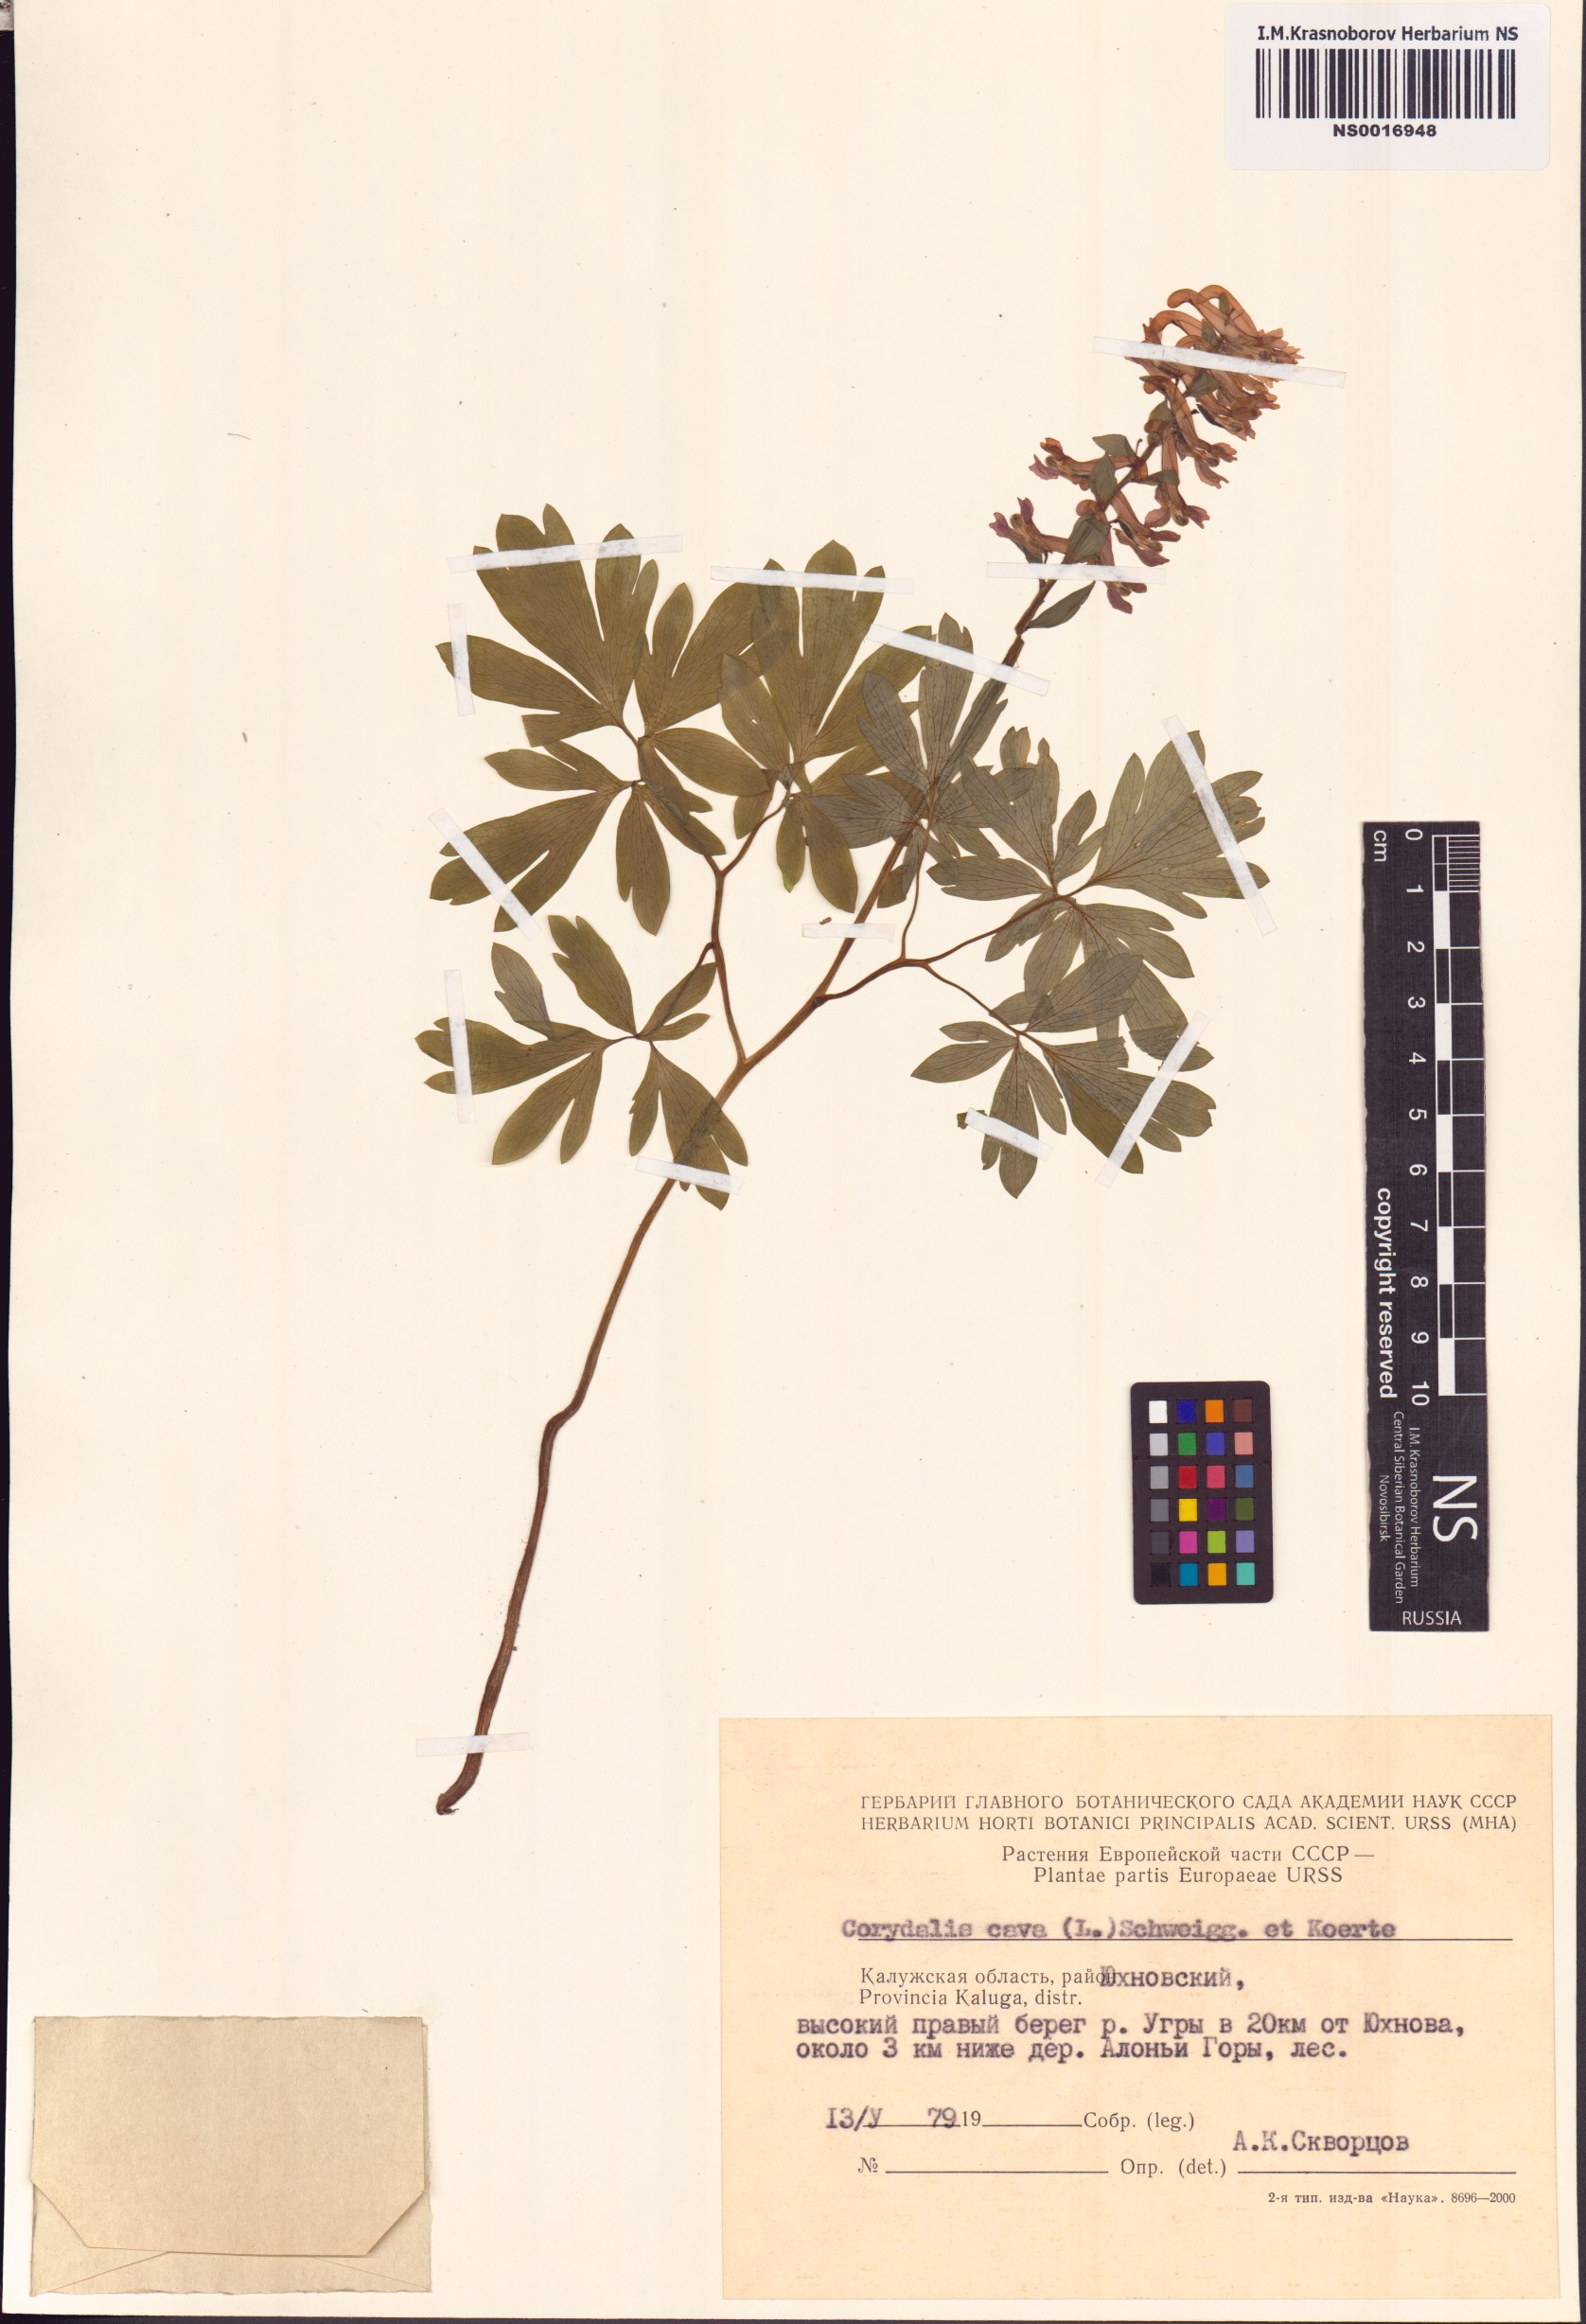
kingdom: Plantae
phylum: Tracheophyta
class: Magnoliopsida
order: Ranunculales
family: Papaveraceae
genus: Corydalis
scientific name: Corydalis cava
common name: Hollowroot
